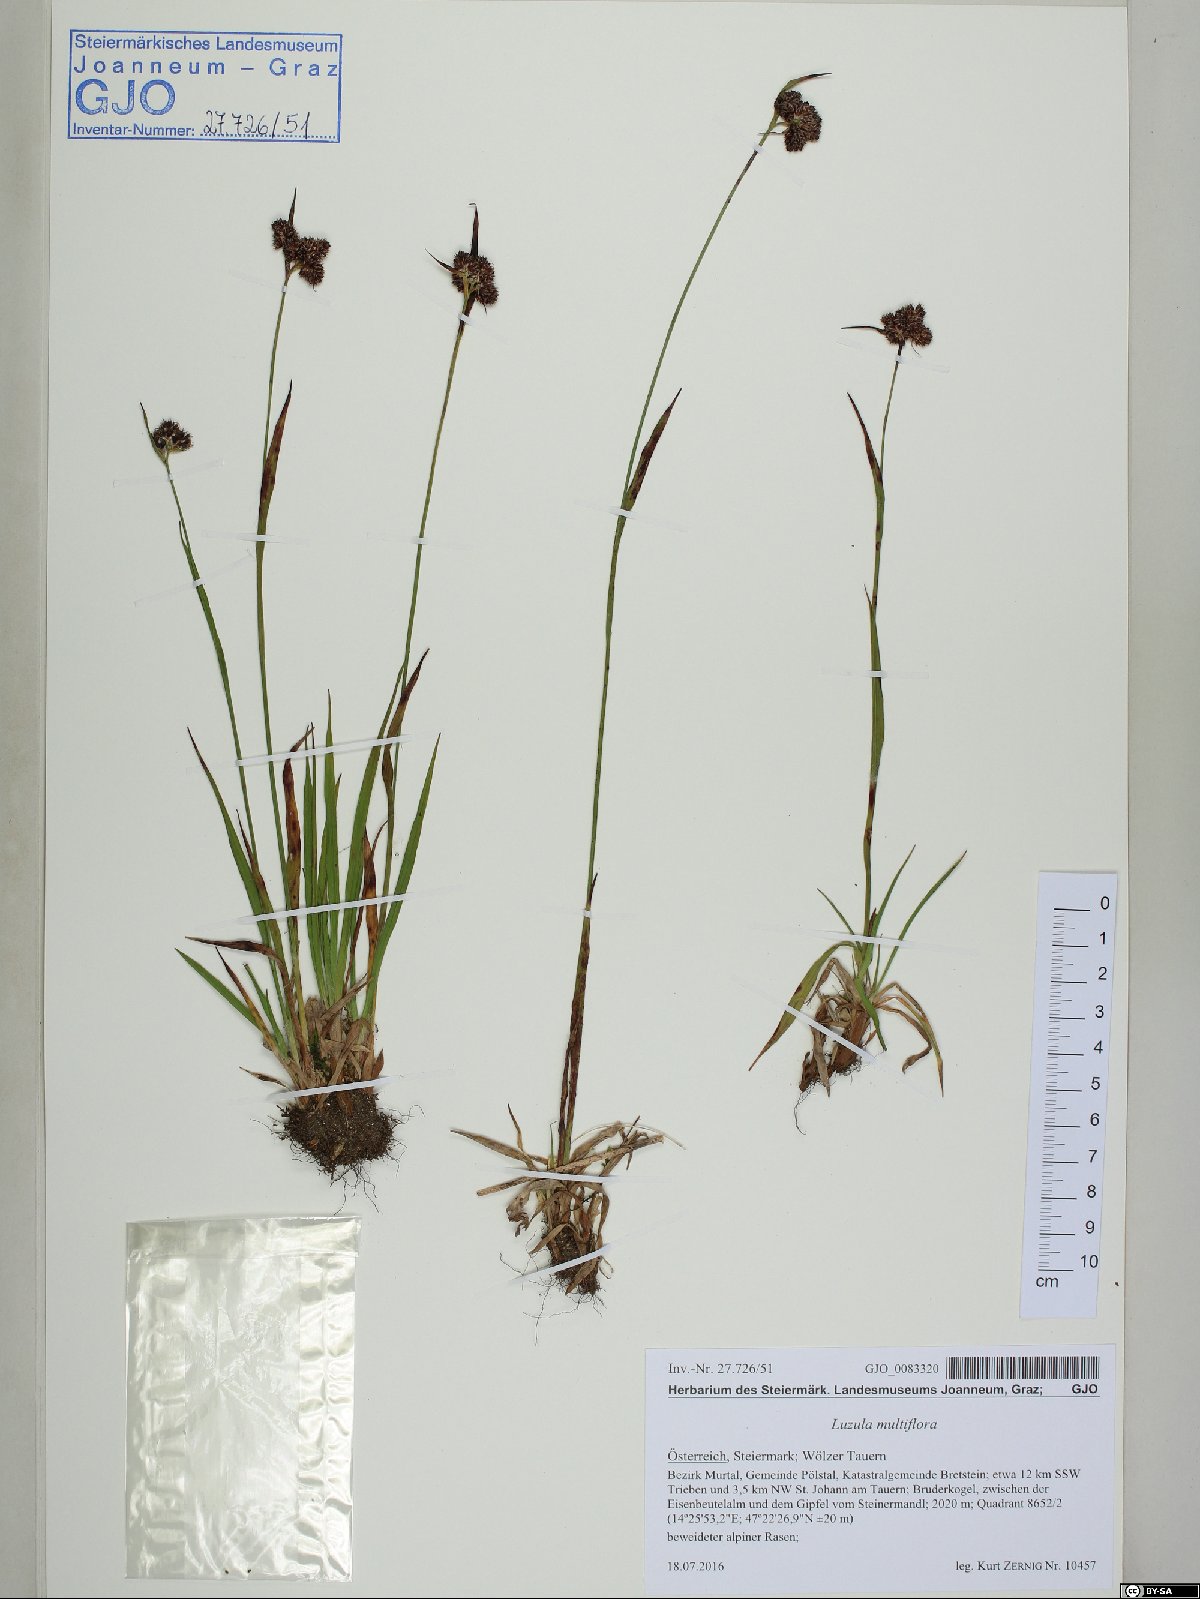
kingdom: Plantae
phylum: Tracheophyta
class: Liliopsida
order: Poales
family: Juncaceae
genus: Luzula
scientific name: Luzula multiflora
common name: Heath wood-rush
